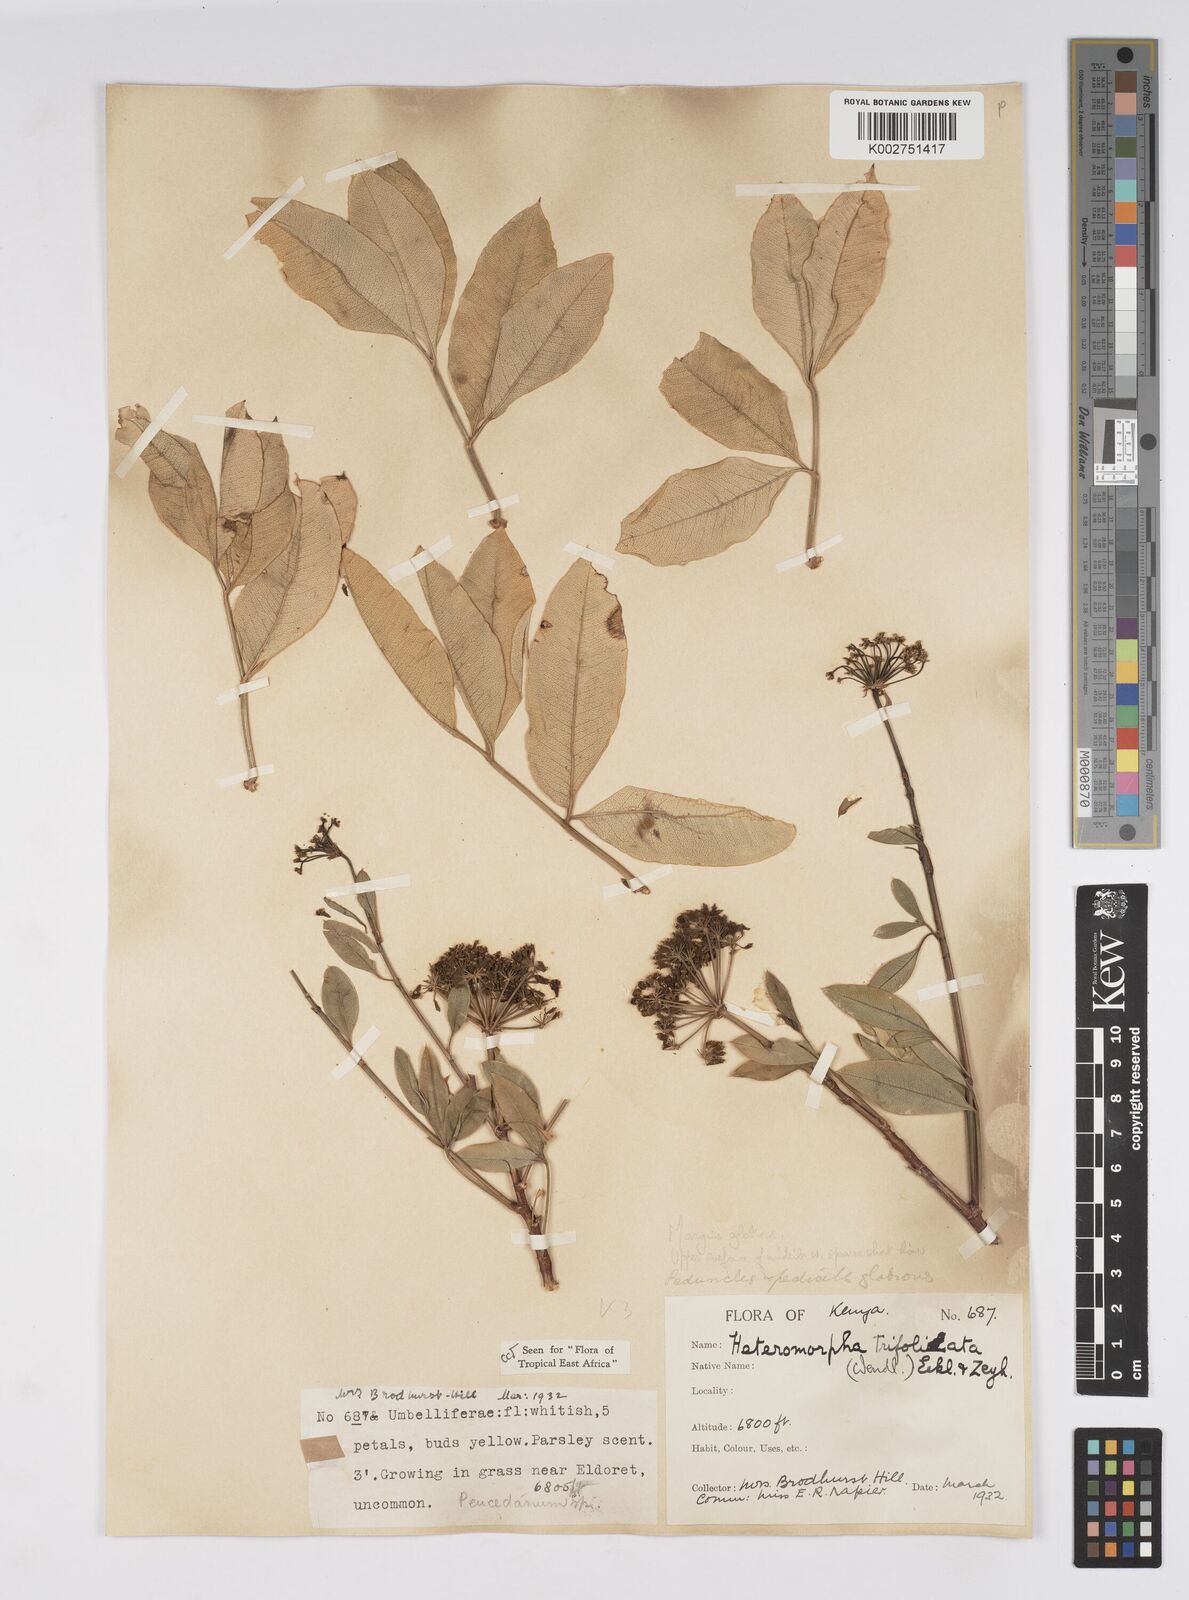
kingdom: Plantae
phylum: Tracheophyta
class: Magnoliopsida
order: Apiales
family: Apiaceae
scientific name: Apiaceae
